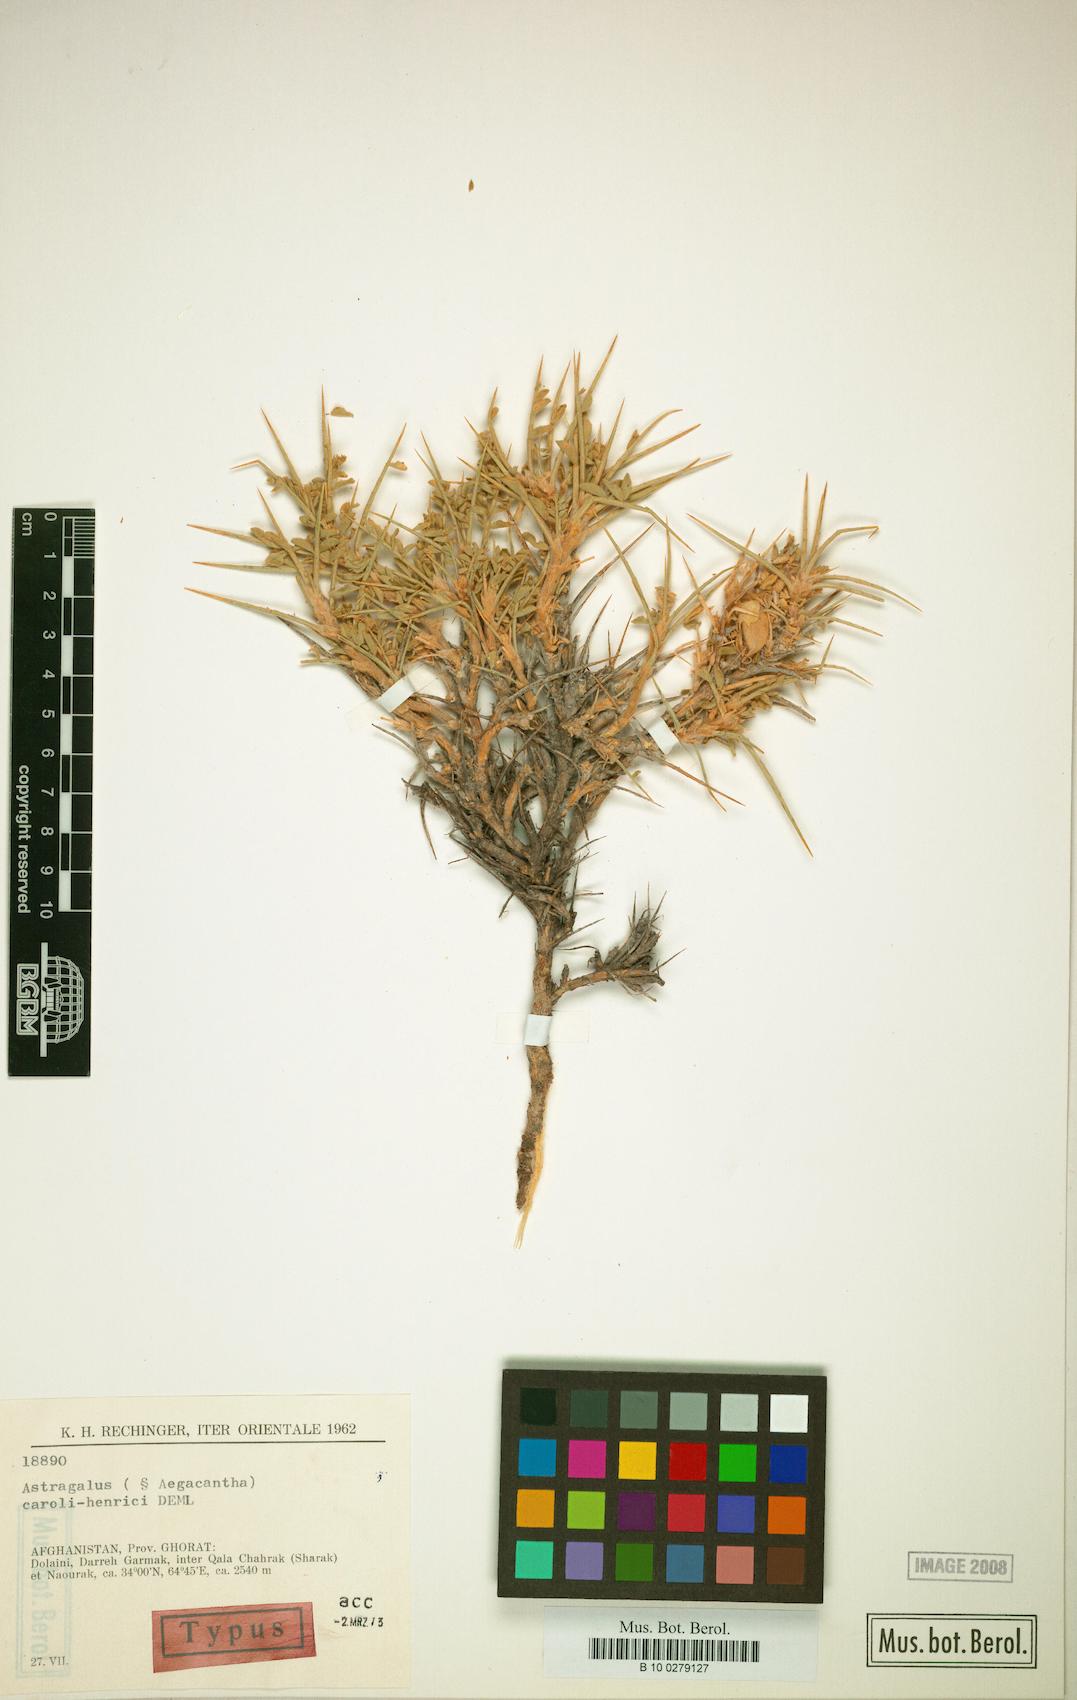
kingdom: Plantae
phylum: Tracheophyta
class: Magnoliopsida
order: Fabales
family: Fabaceae
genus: Astragalus
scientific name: Astragalus caroli-henrici
